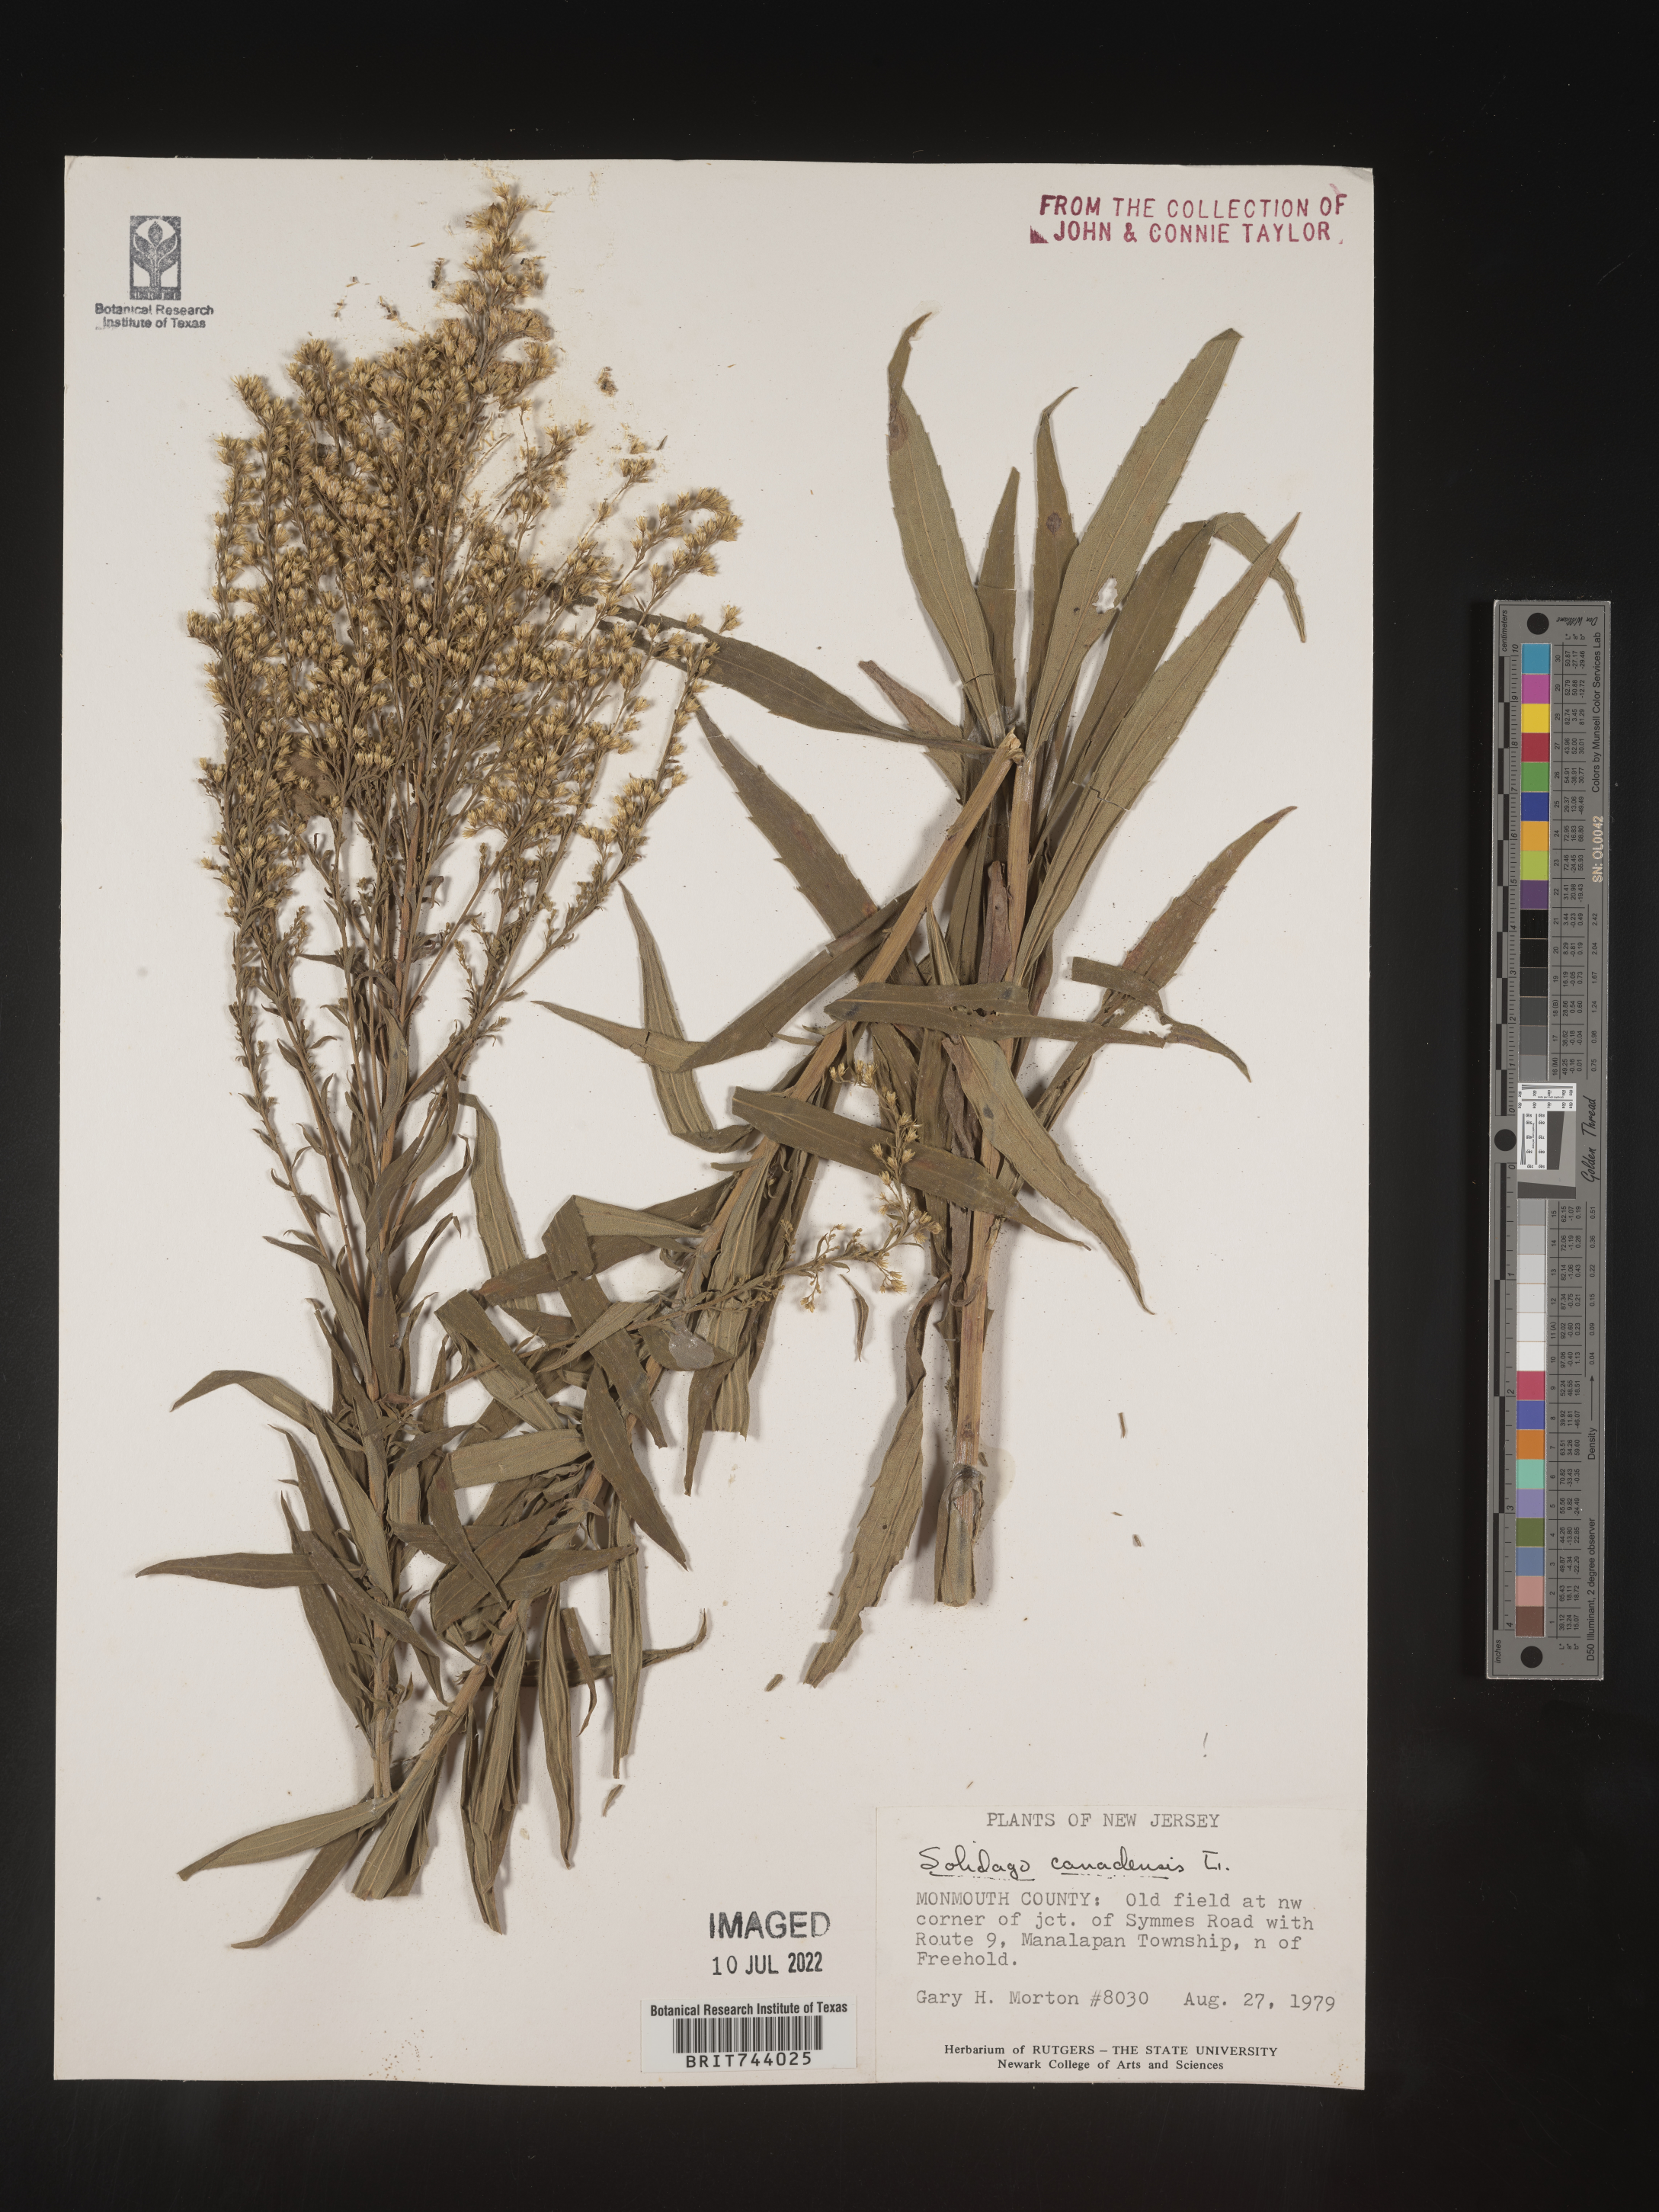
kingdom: Plantae
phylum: Tracheophyta
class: Magnoliopsida
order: Asterales
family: Asteraceae
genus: Solidago
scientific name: Solidago altissima
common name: Late goldenrod
